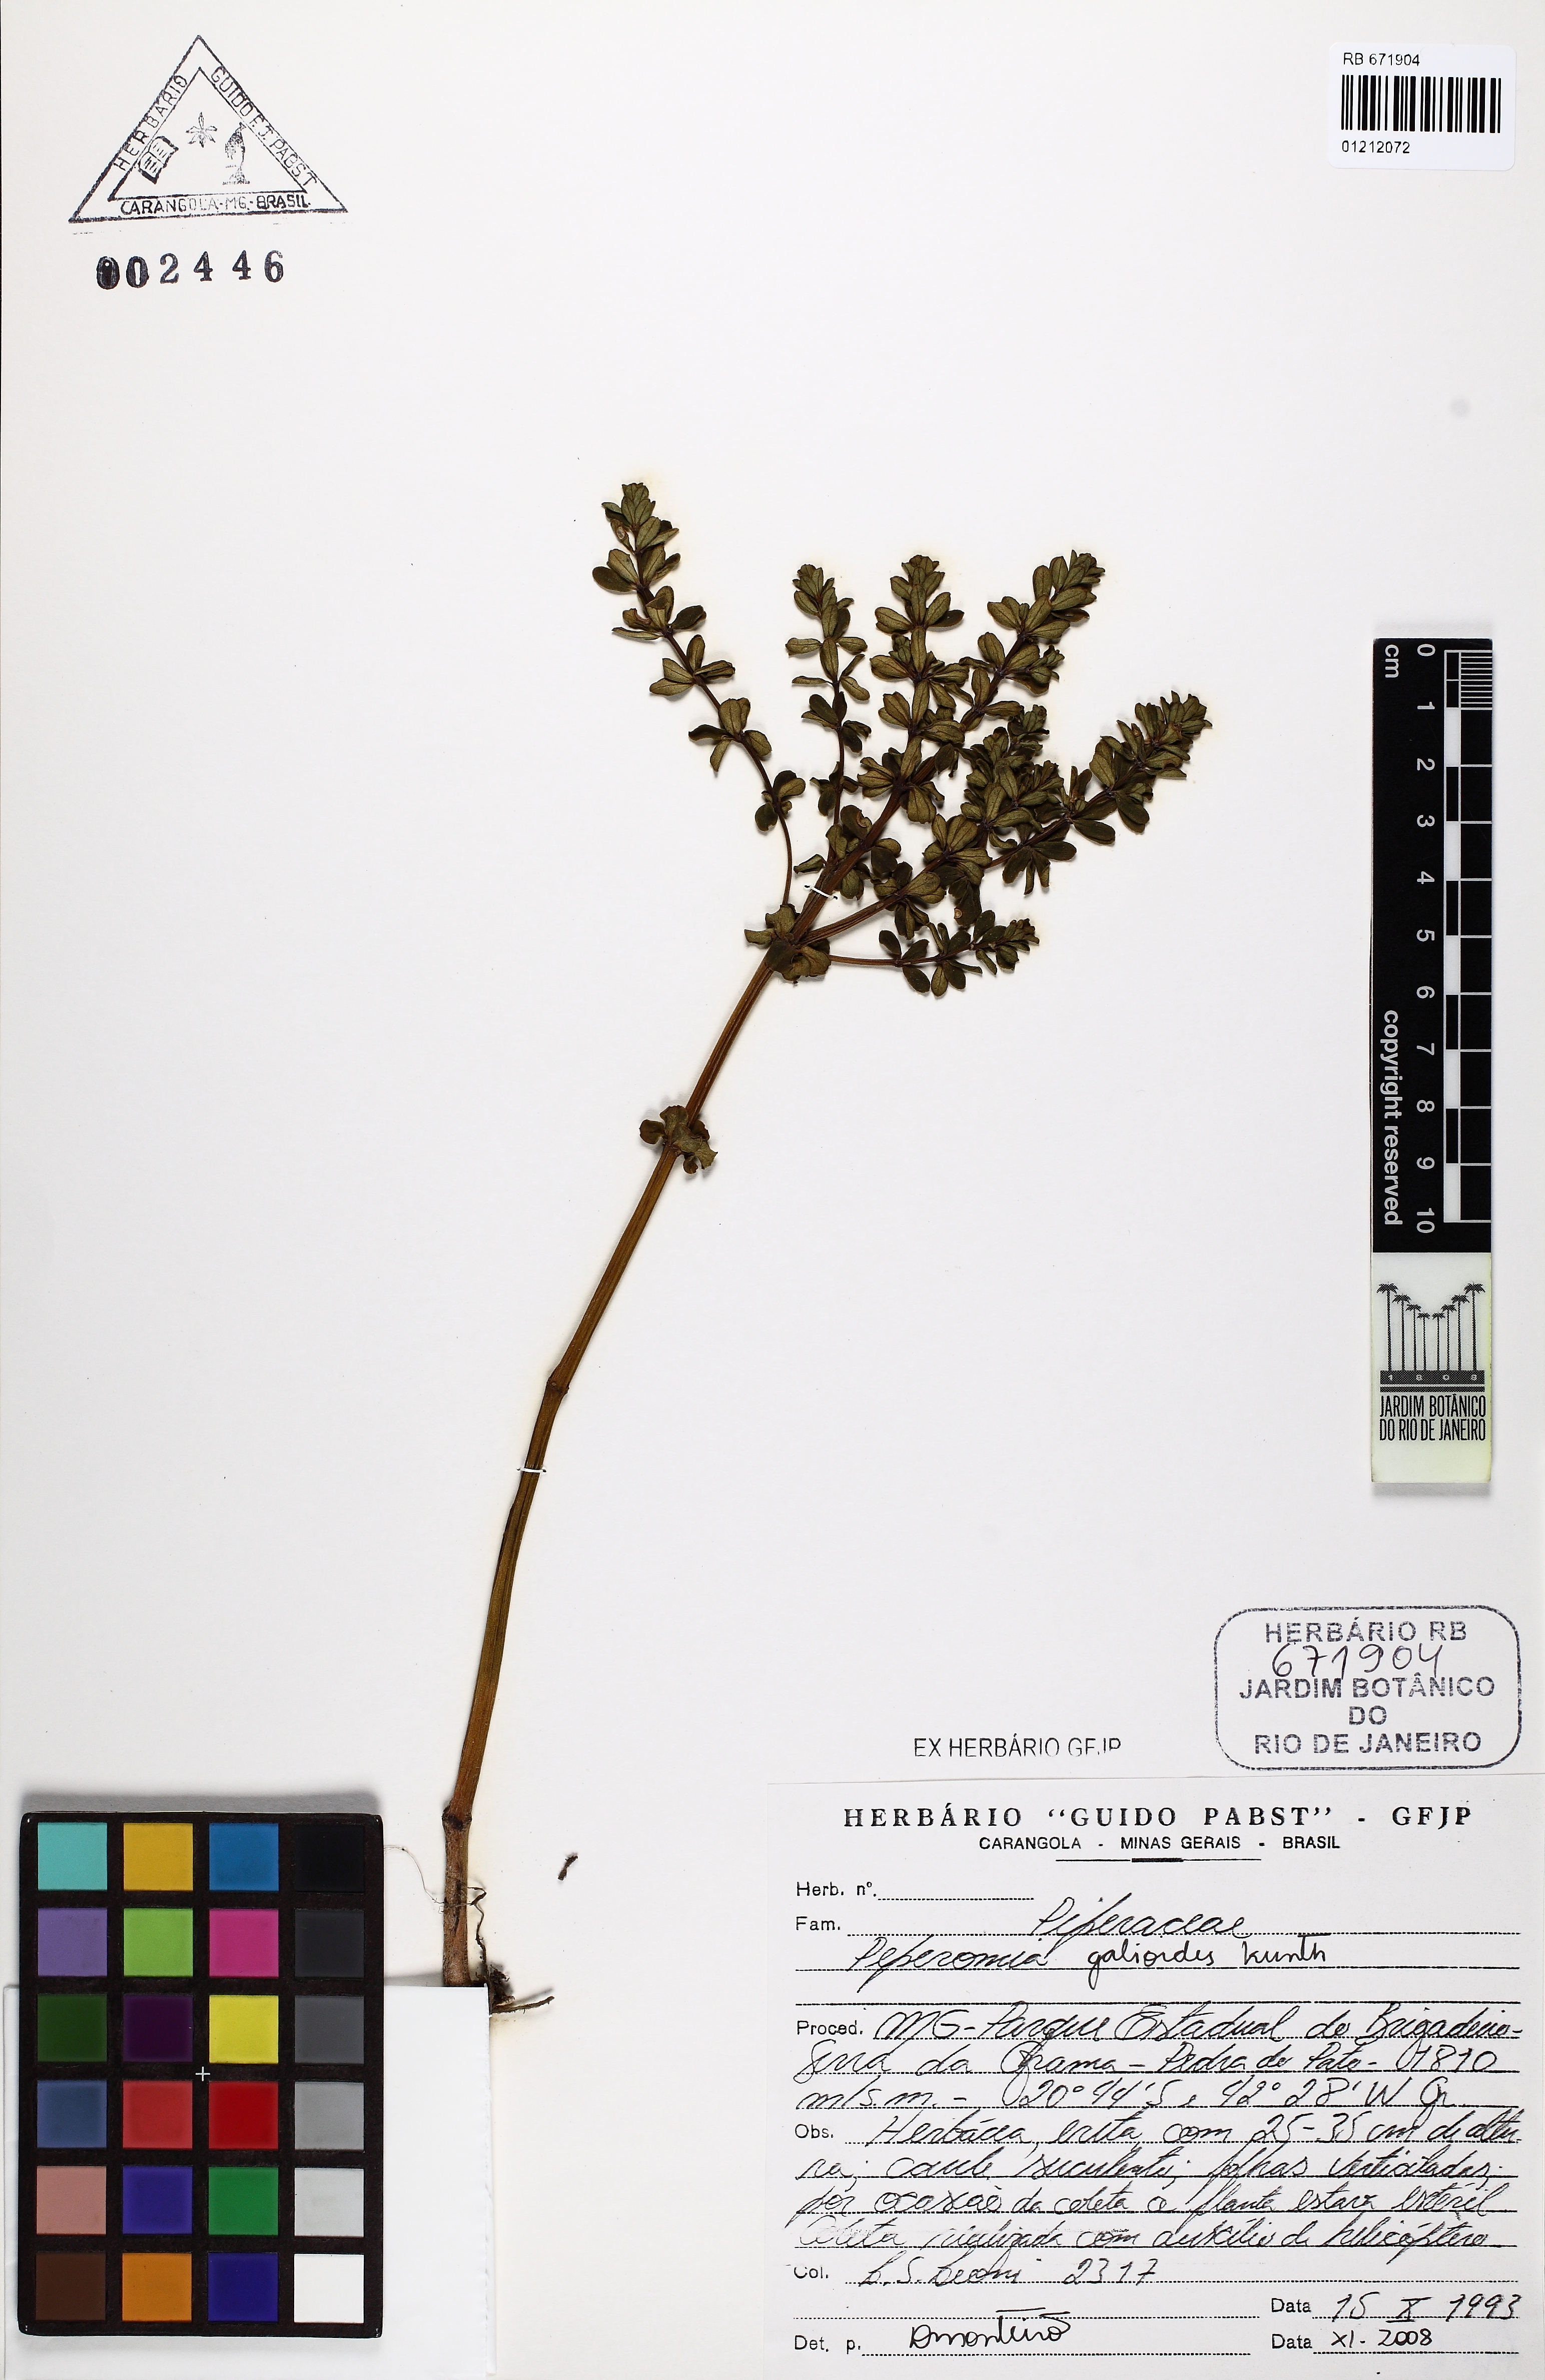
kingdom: Plantae
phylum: Tracheophyta
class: Magnoliopsida
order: Piperales
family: Piperaceae
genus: Peperomia
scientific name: Peperomia galioides
